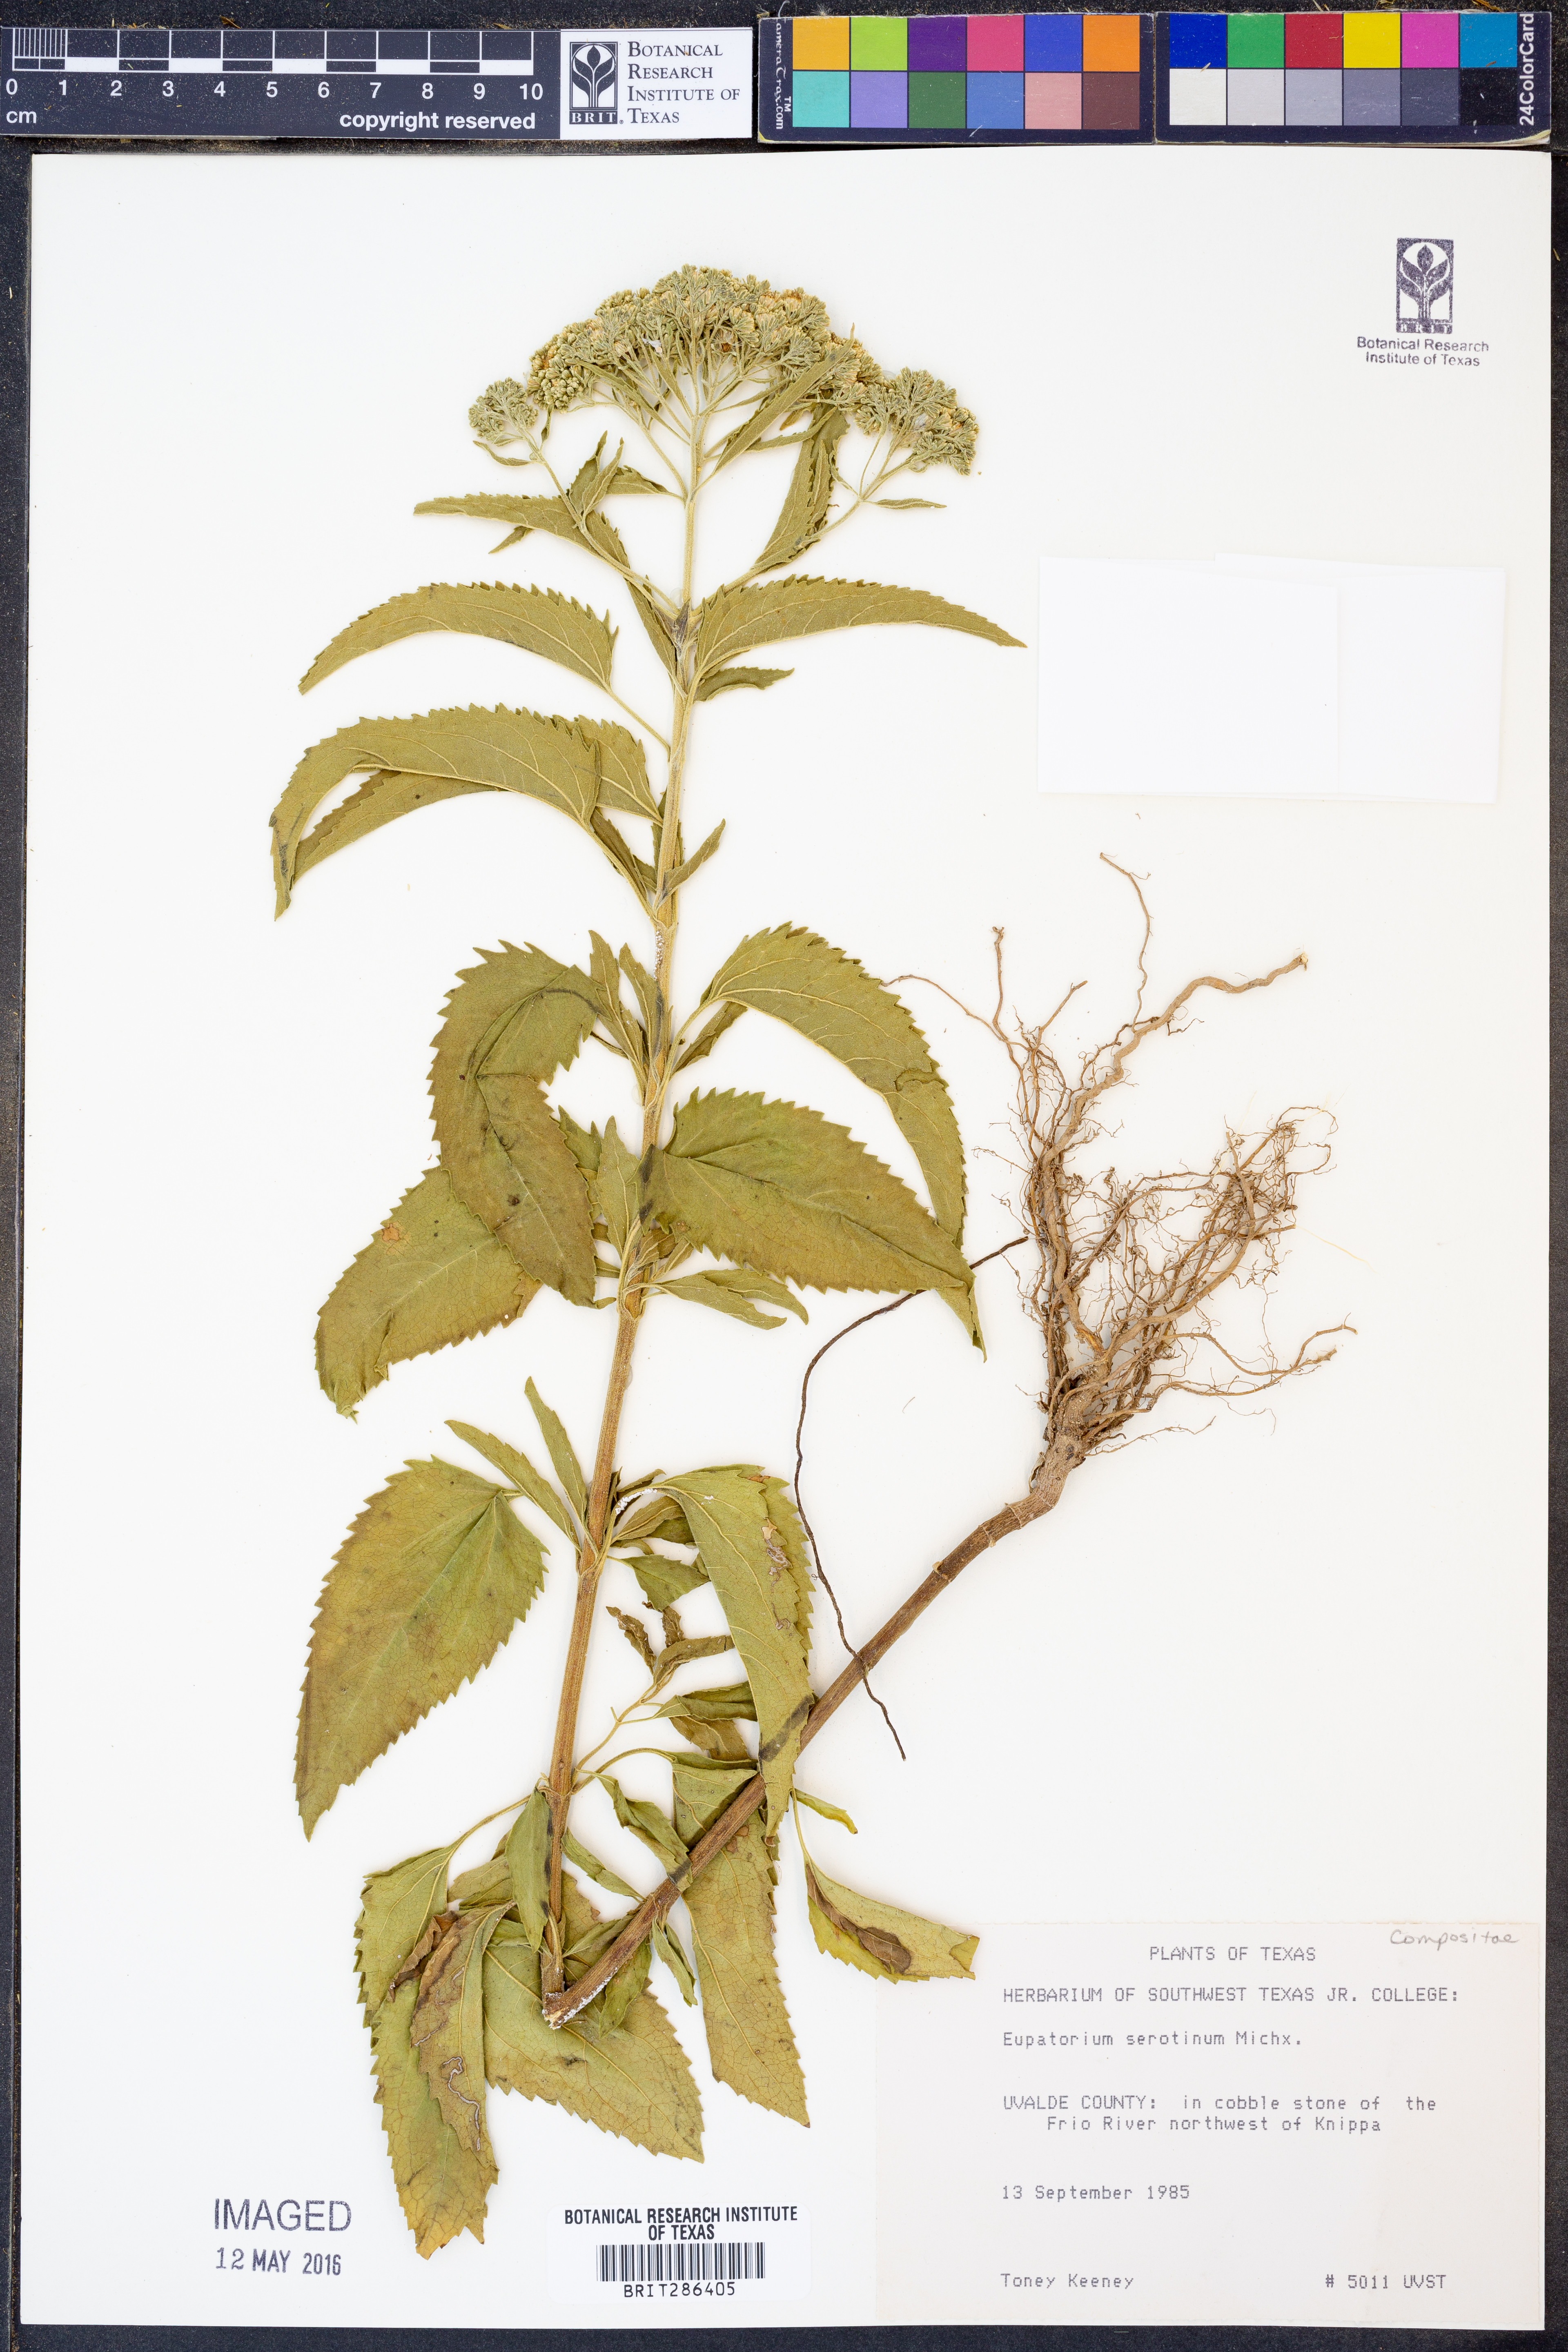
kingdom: Plantae
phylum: Tracheophyta
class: Magnoliopsida
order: Asterales
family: Asteraceae
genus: Eupatorium
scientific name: Eupatorium serotinum
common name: Late boneset
